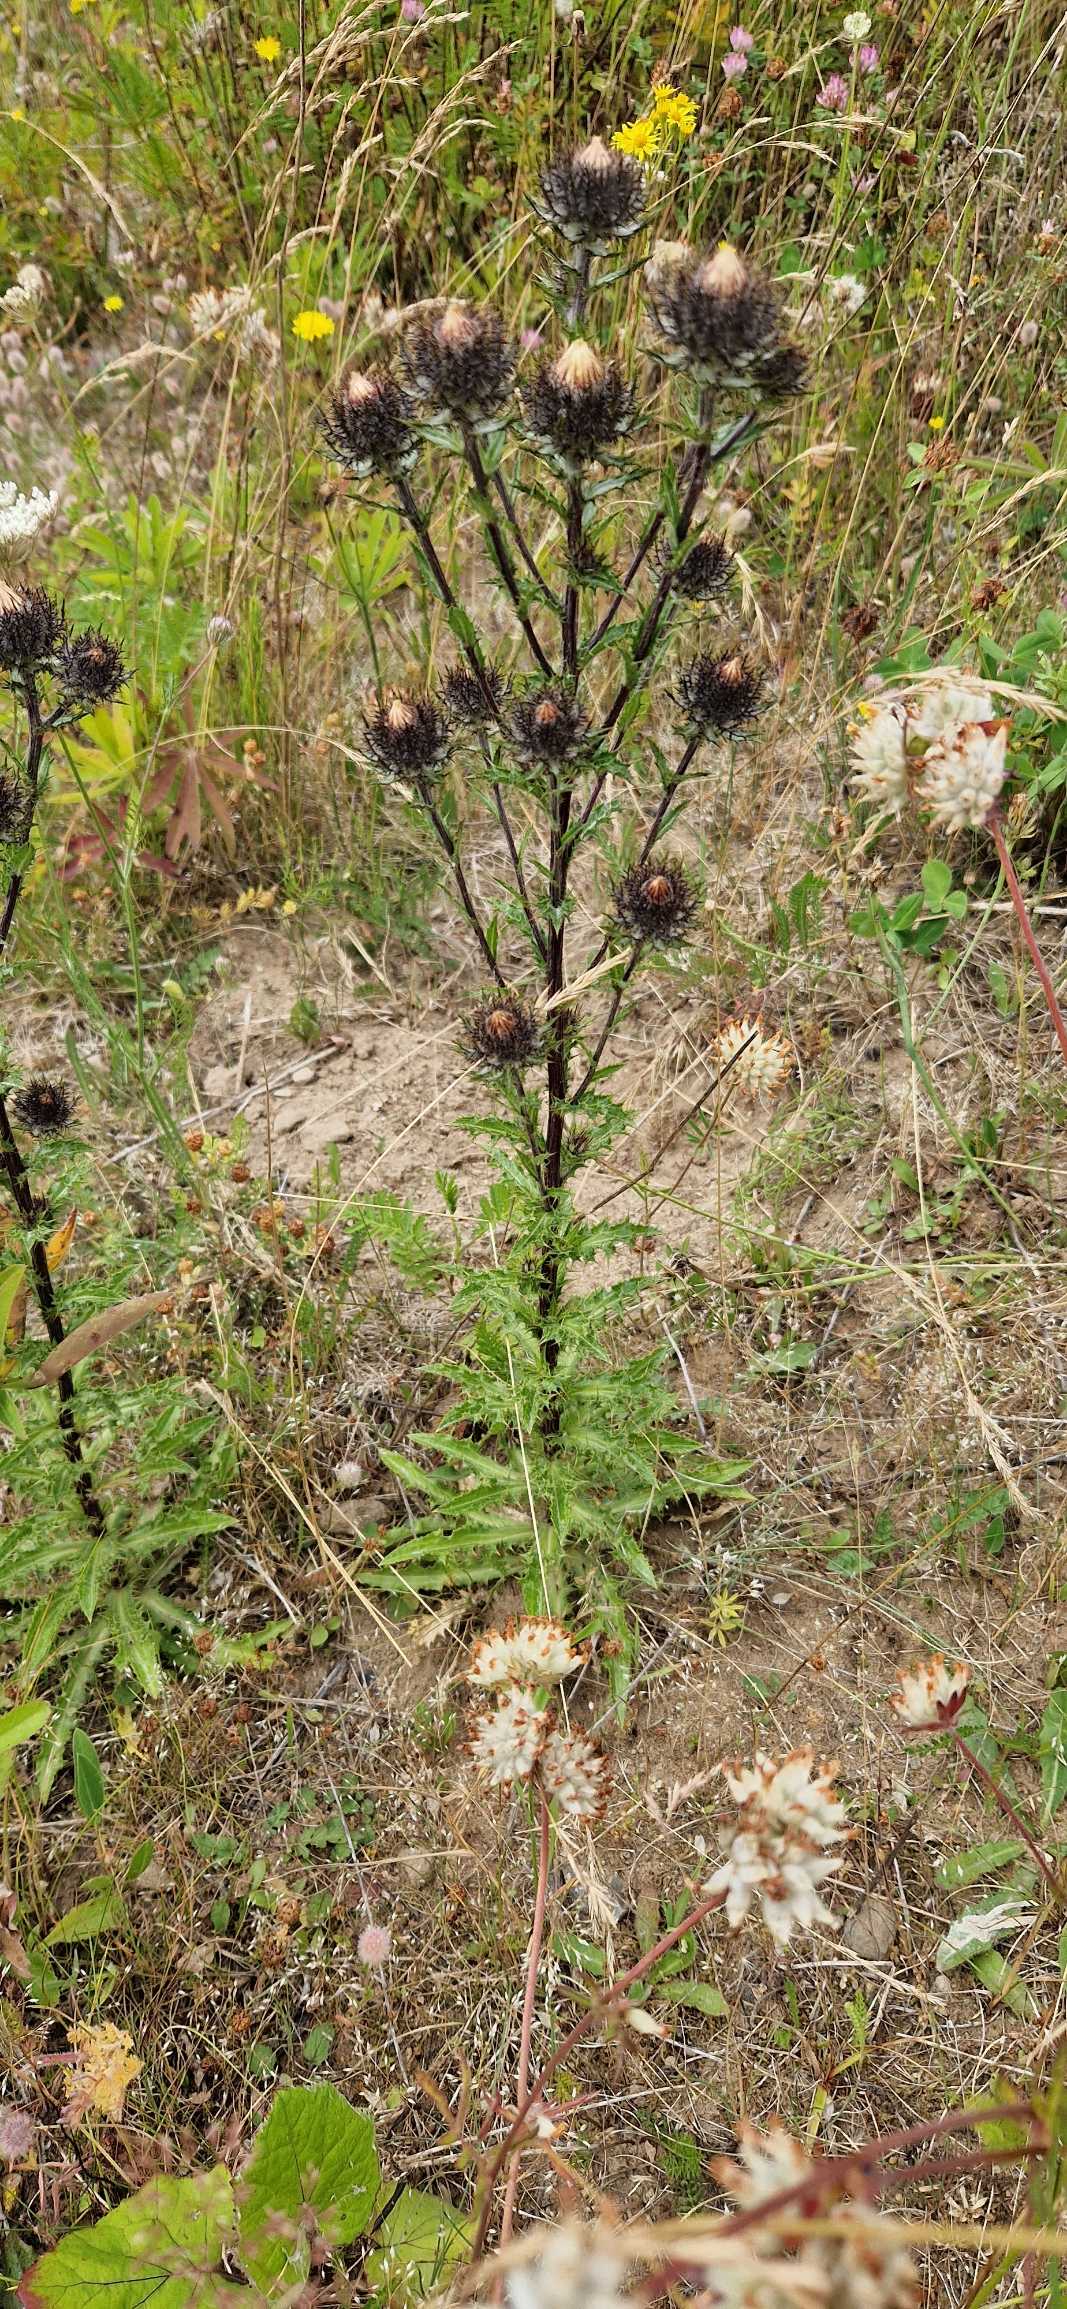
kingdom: Plantae
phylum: Tracheophyta
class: Magnoliopsida
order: Asterales
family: Asteraceae
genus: Carlina
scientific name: Carlina vulgaris
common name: Bakketidsel
